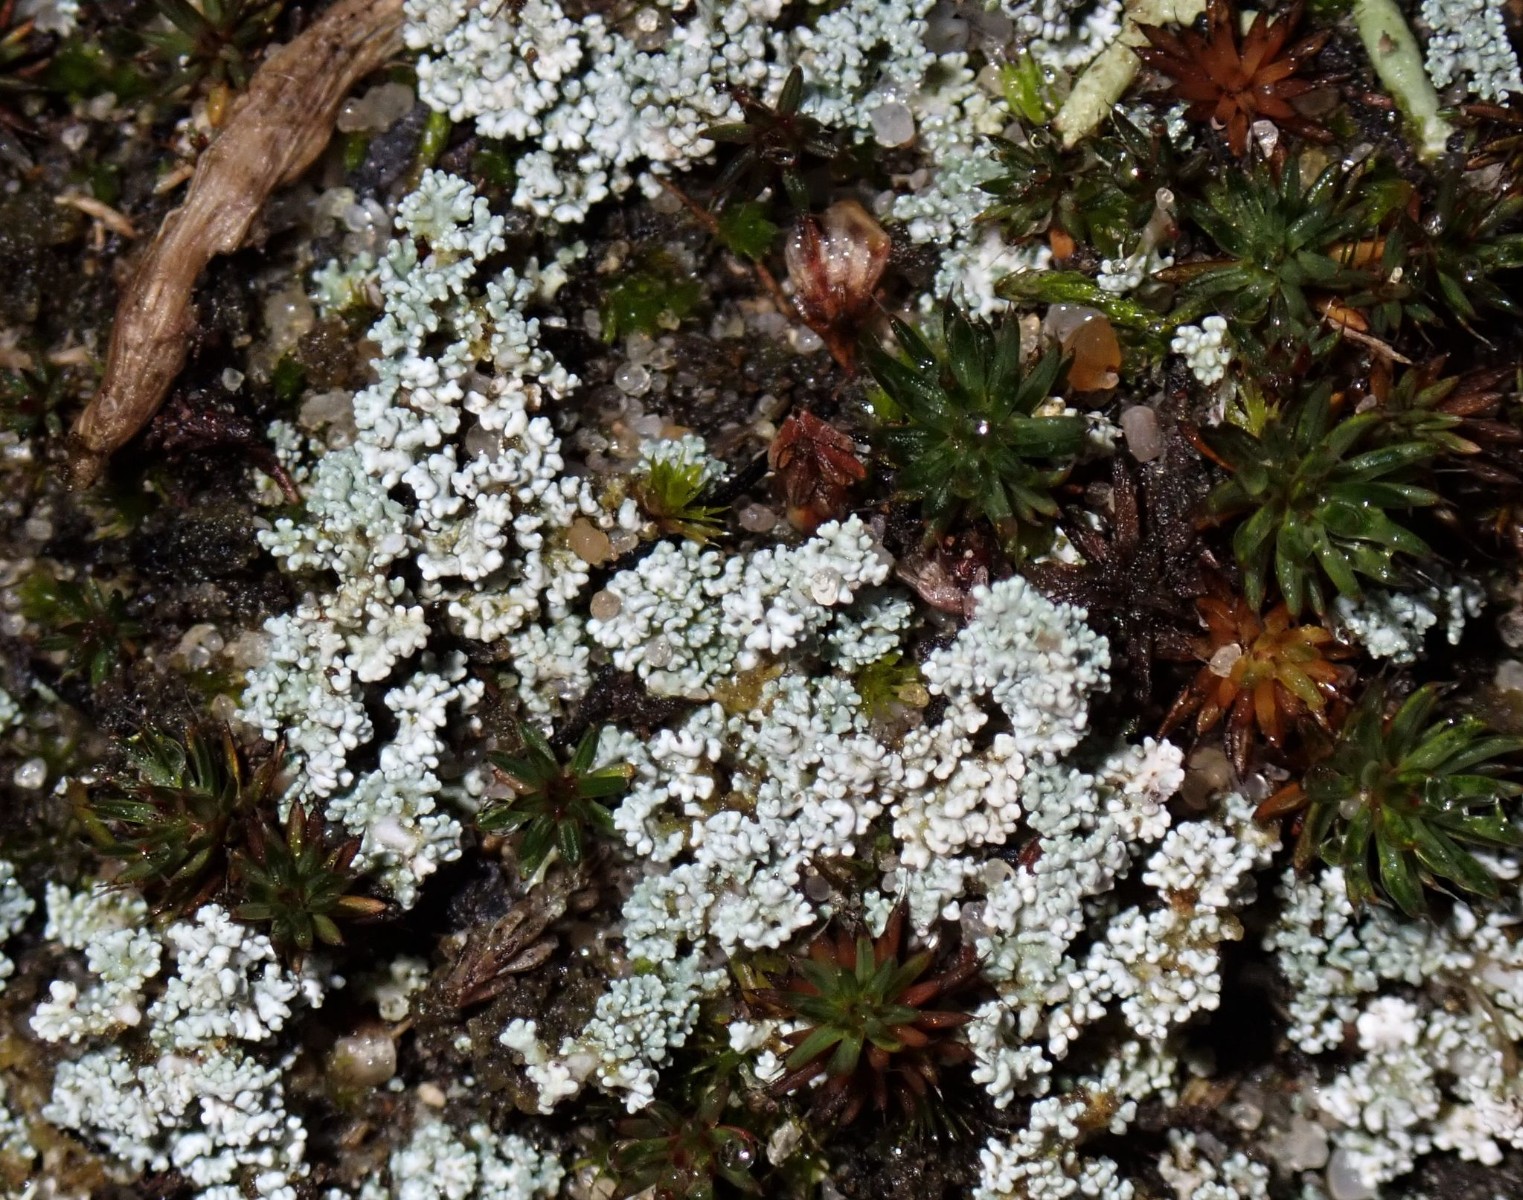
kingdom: Fungi
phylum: Ascomycota
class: Lecanoromycetes
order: Lecanorales
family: Stereocaulaceae
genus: Stereocaulon
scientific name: Stereocaulon condensatum
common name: lav korallav
